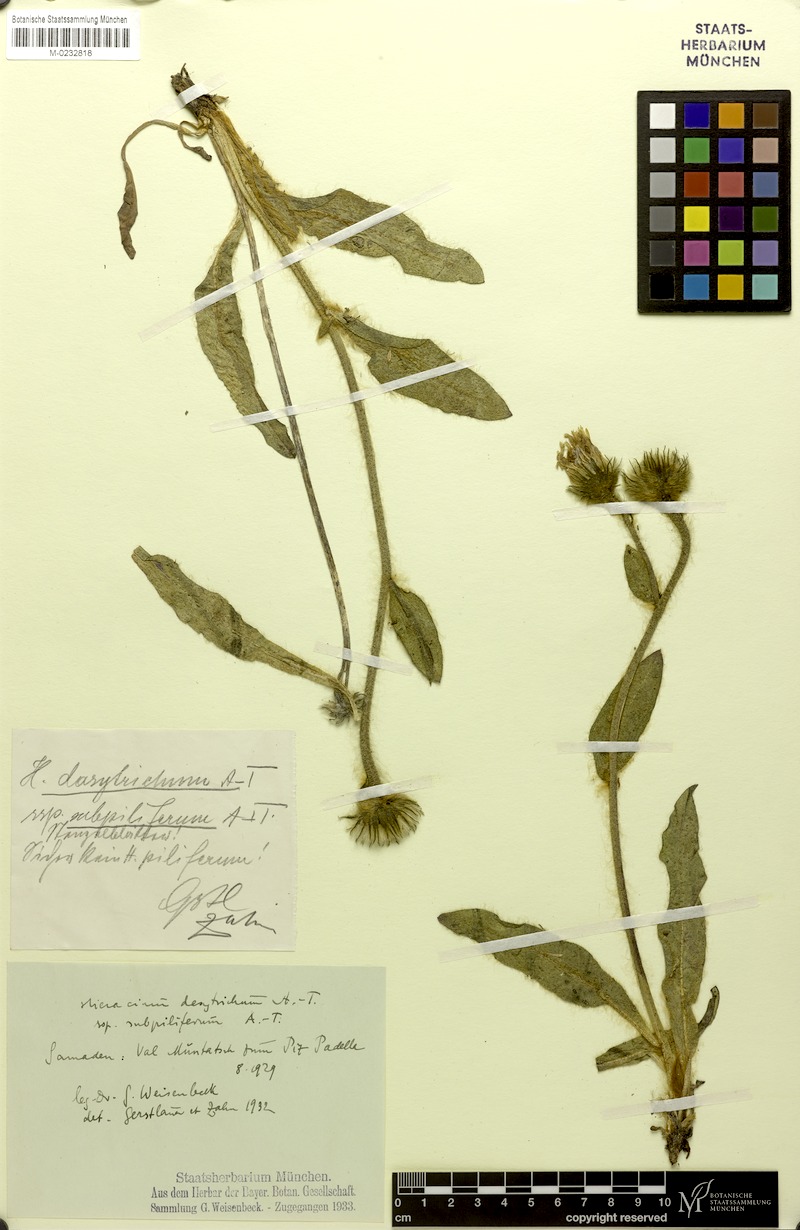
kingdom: Plantae
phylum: Tracheophyta
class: Magnoliopsida
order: Asterales
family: Asteraceae
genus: Hieracium
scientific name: Hieracium dasytrichum
